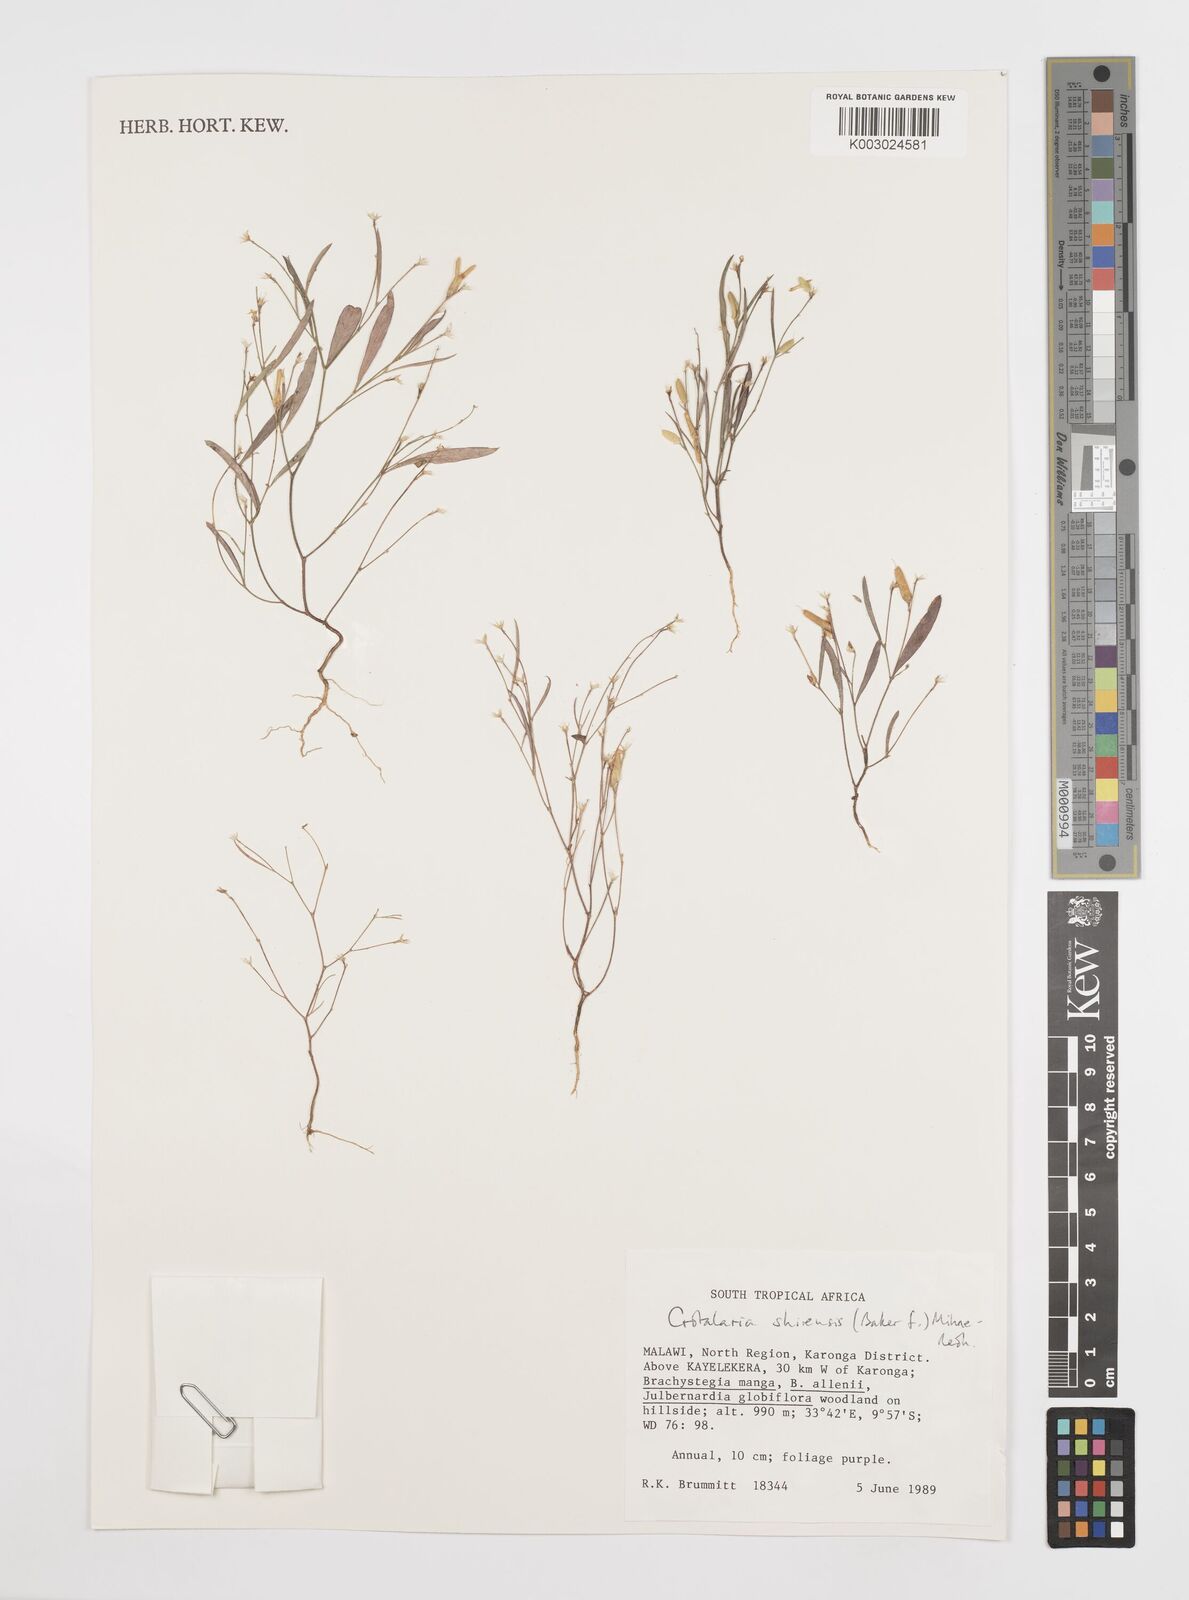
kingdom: Plantae
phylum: Tracheophyta
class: Magnoliopsida
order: Fabales
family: Fabaceae
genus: Crotalaria
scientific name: Crotalaria shirensis
